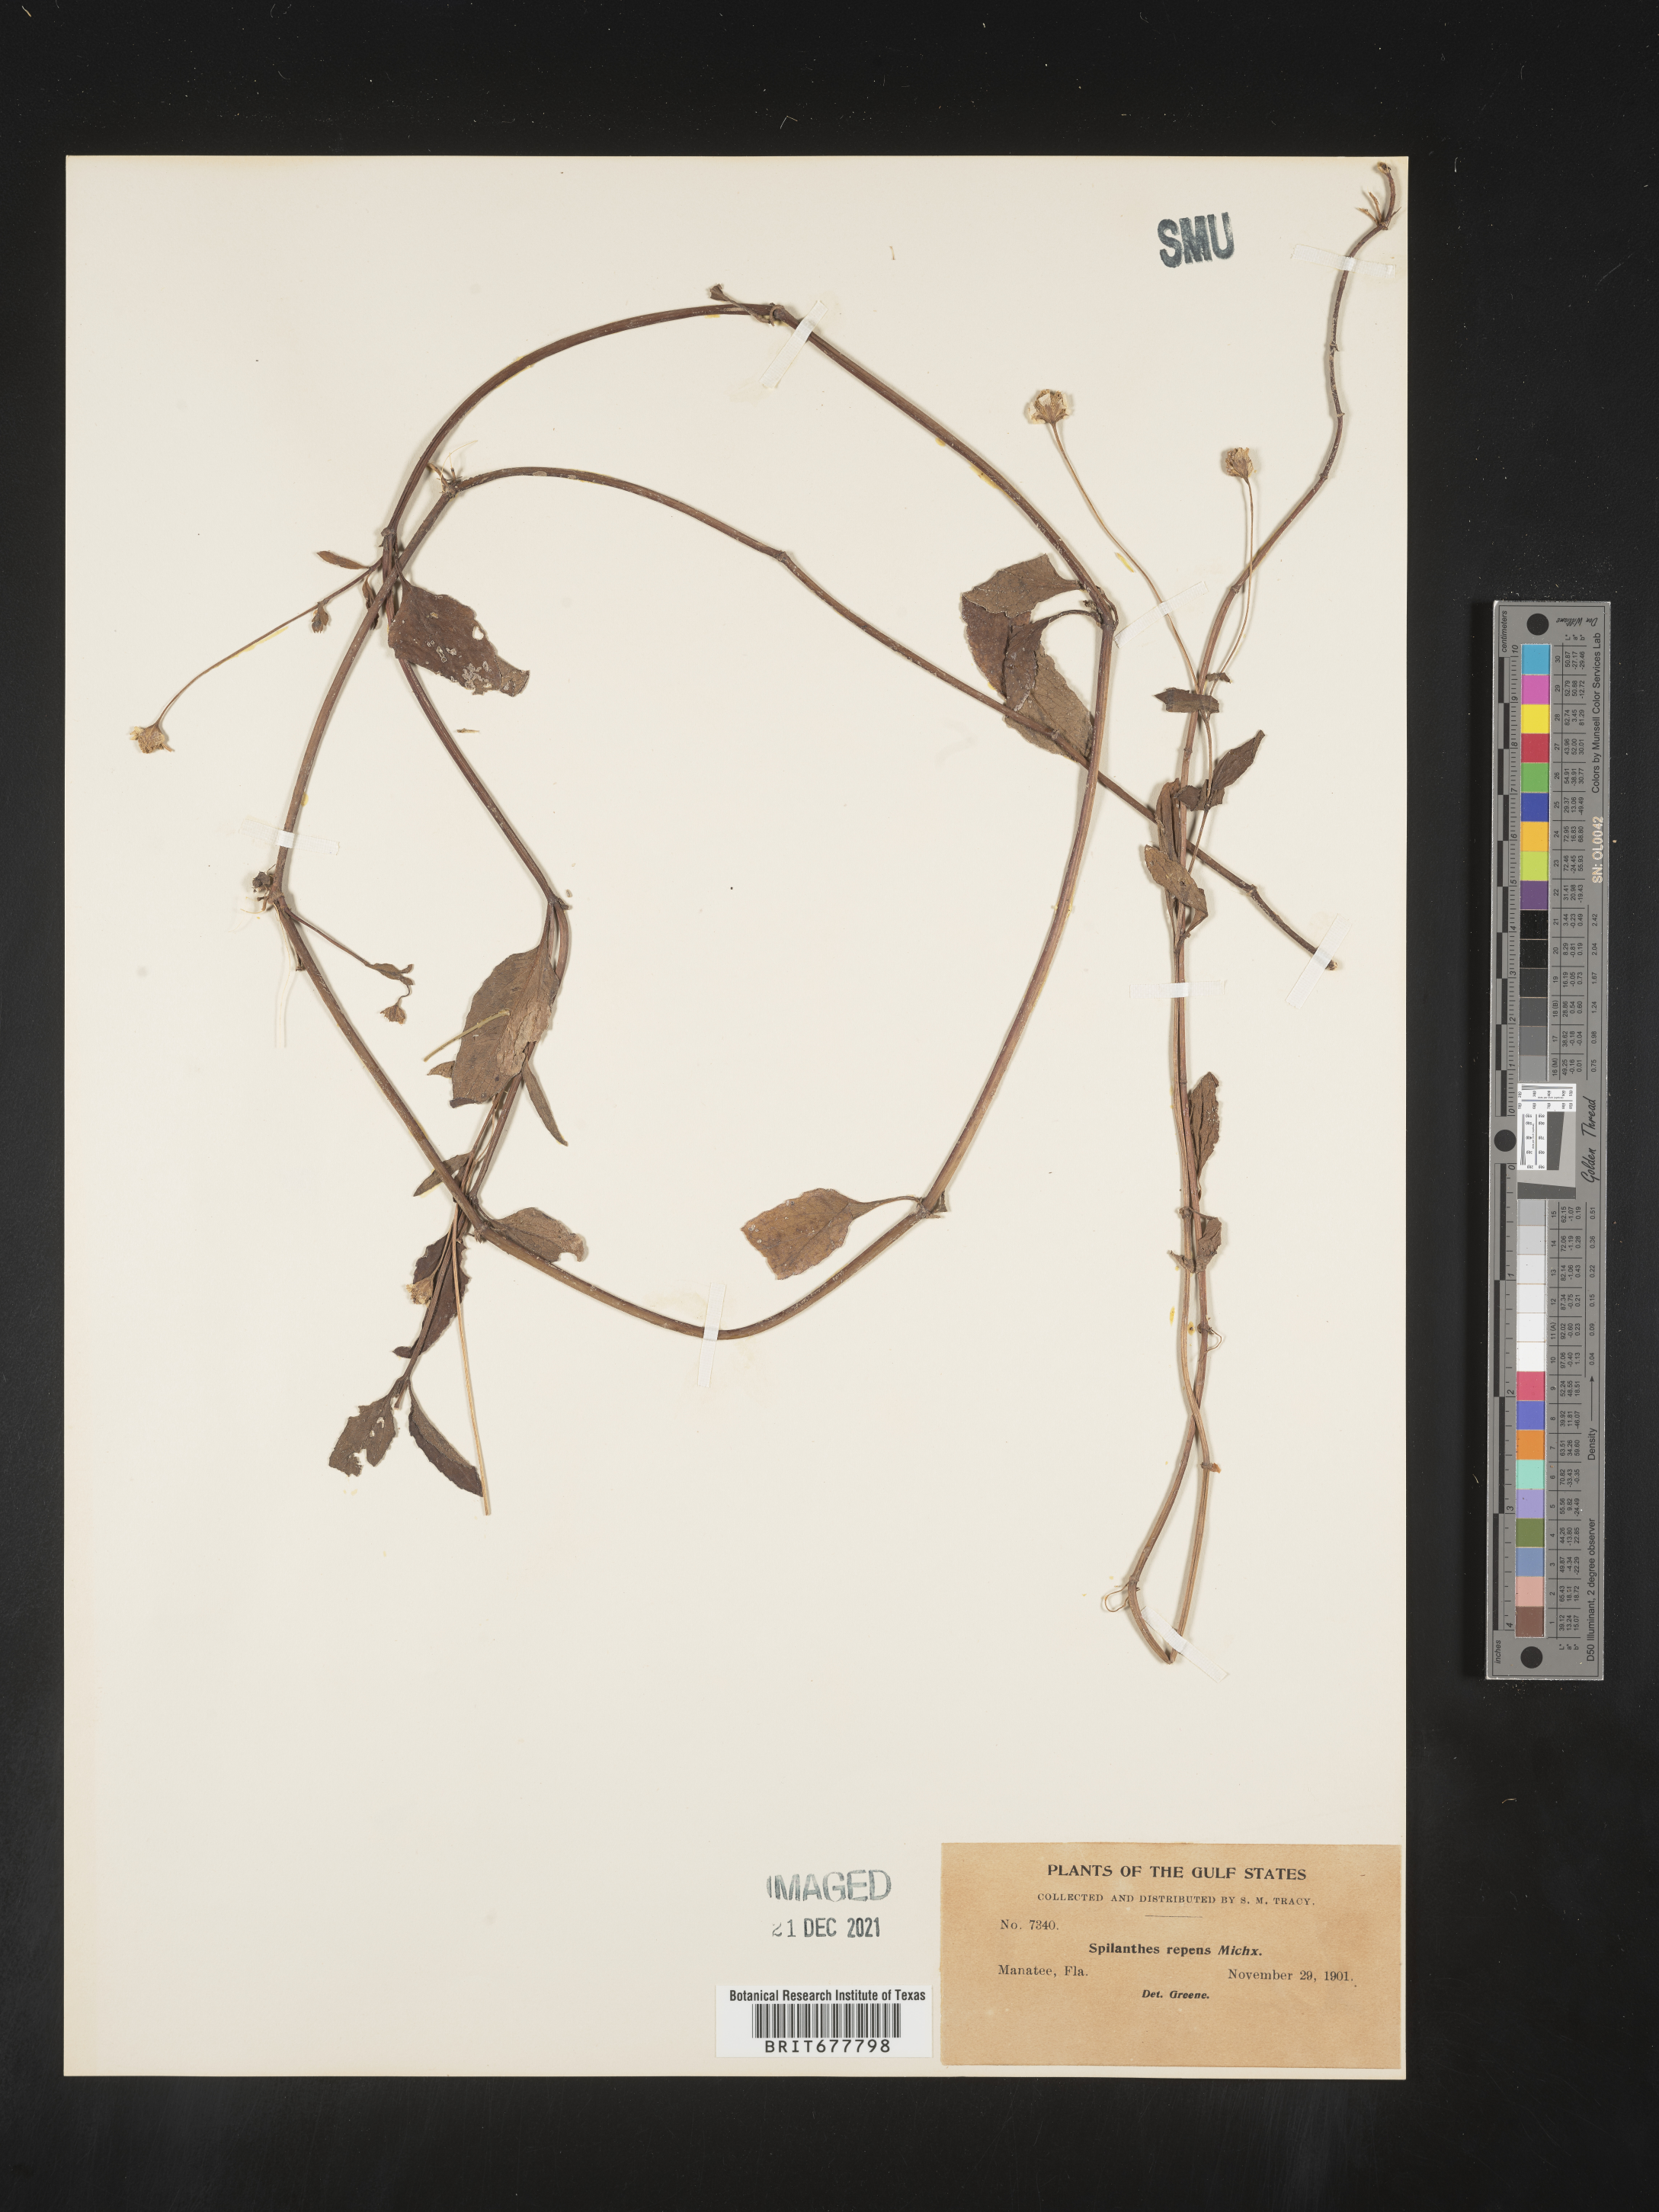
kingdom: Plantae
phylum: Tracheophyta
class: Magnoliopsida
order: Asterales
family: Asteraceae
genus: Spilanthes
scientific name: Spilanthes
